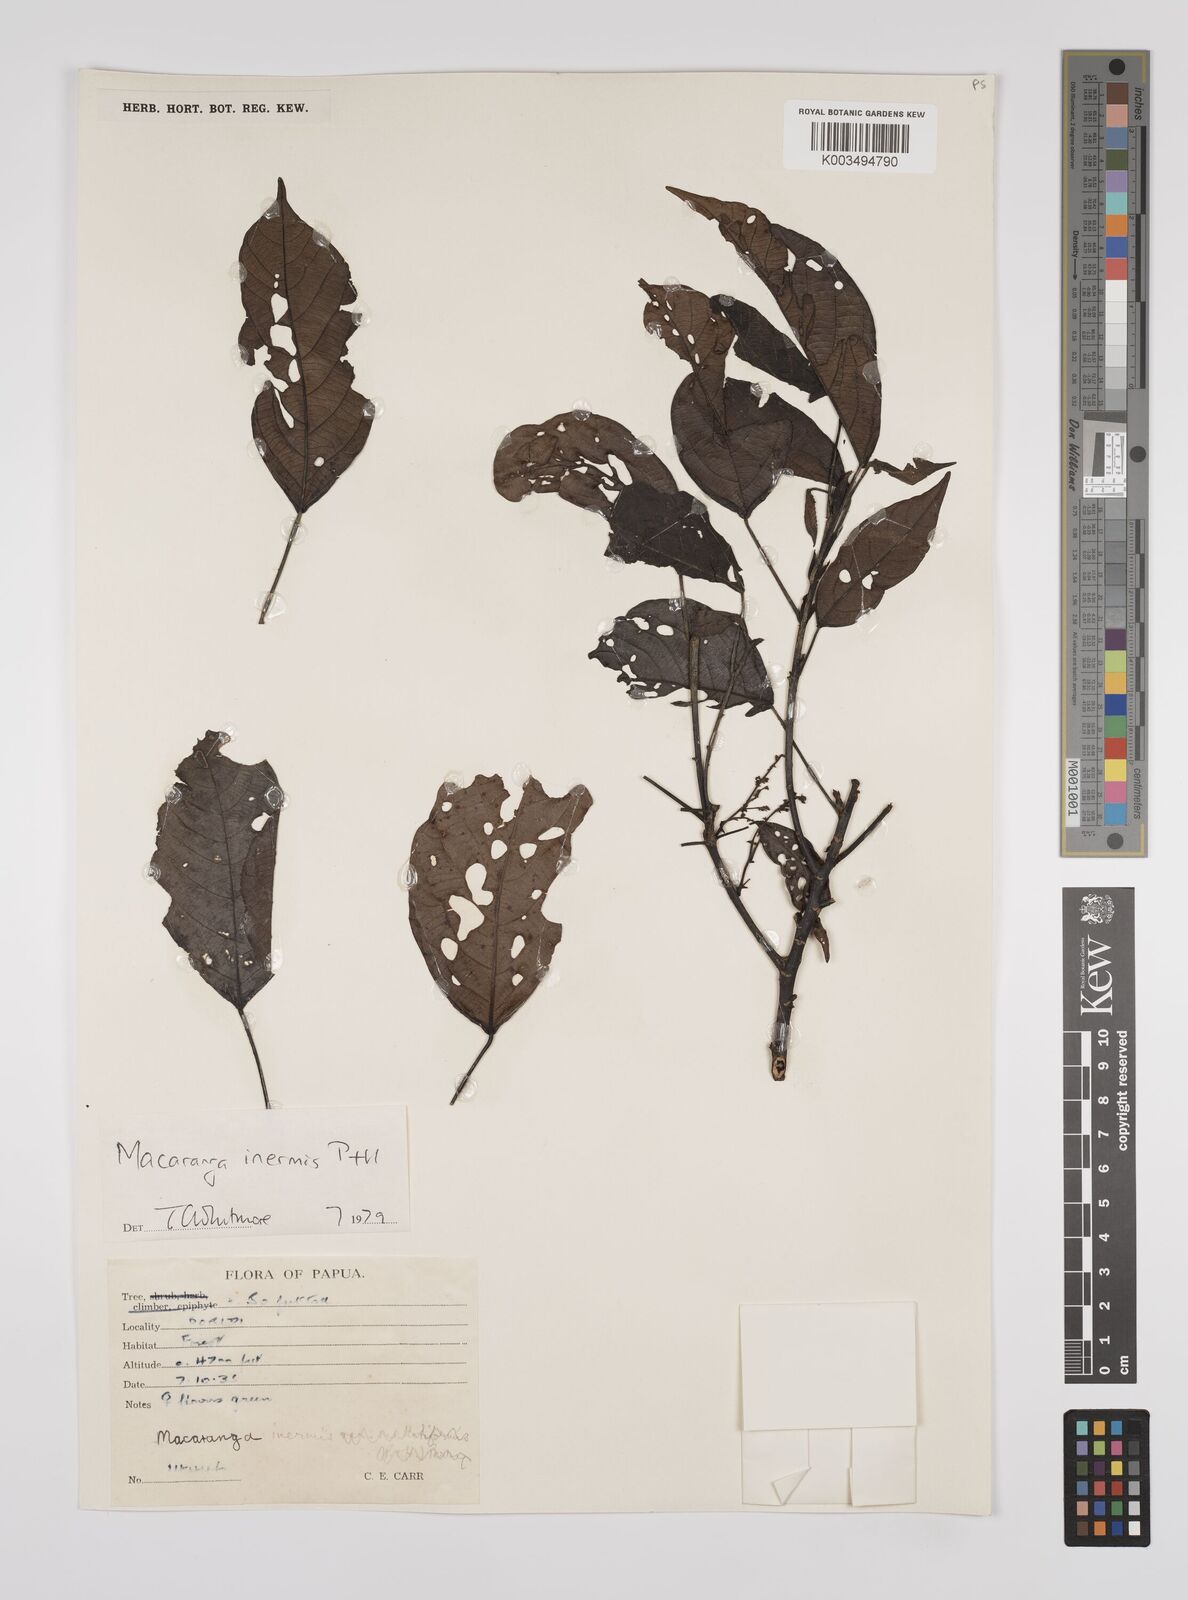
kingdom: Plantae
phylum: Tracheophyta
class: Magnoliopsida
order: Malpighiales
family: Euphorbiaceae
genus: Macaranga
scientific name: Macaranga inermis
